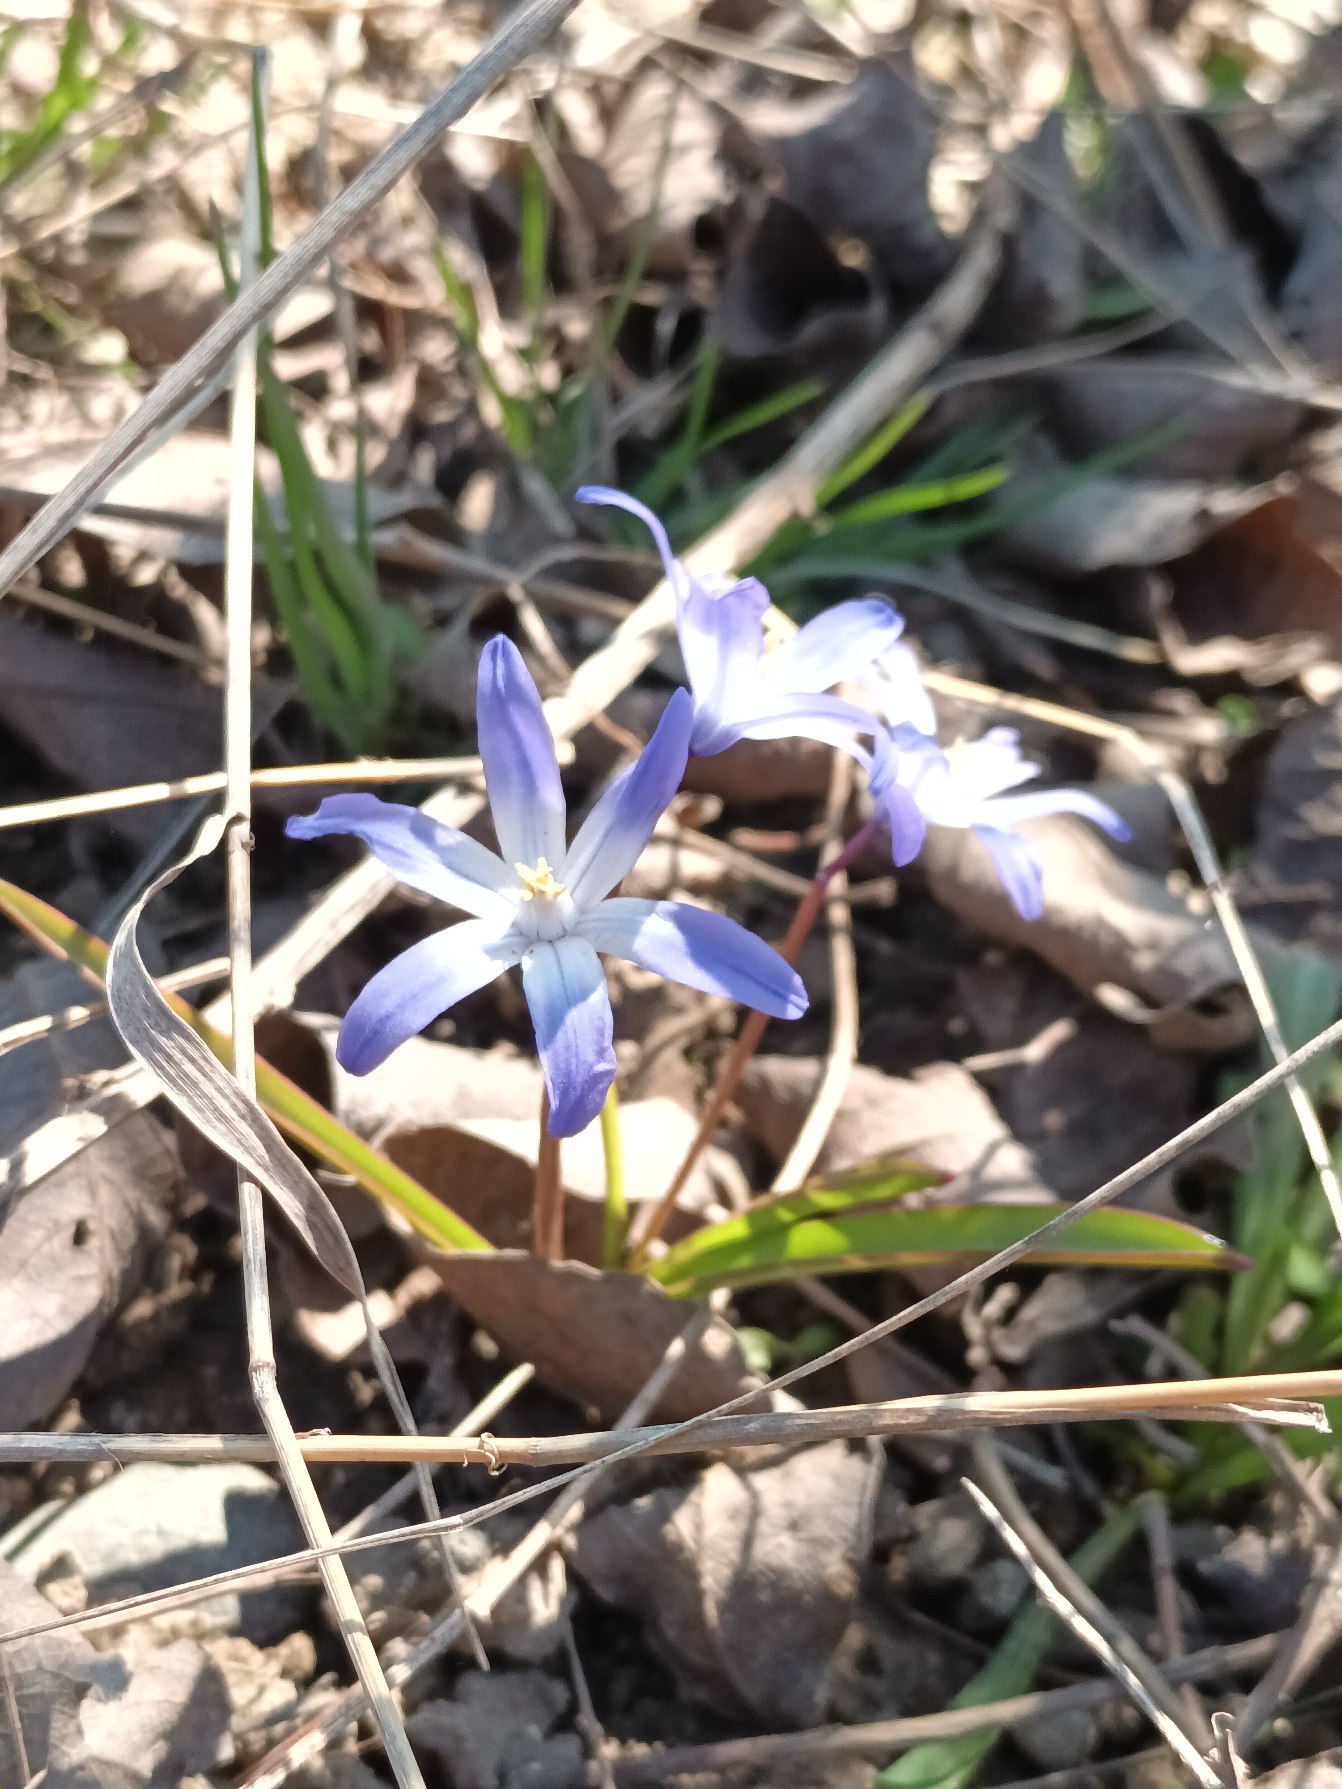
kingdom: Plantae
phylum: Tracheophyta
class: Liliopsida
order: Asparagales
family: Asparagaceae
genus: Scilla
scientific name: Scilla forbesii
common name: Almindelig snepryd
